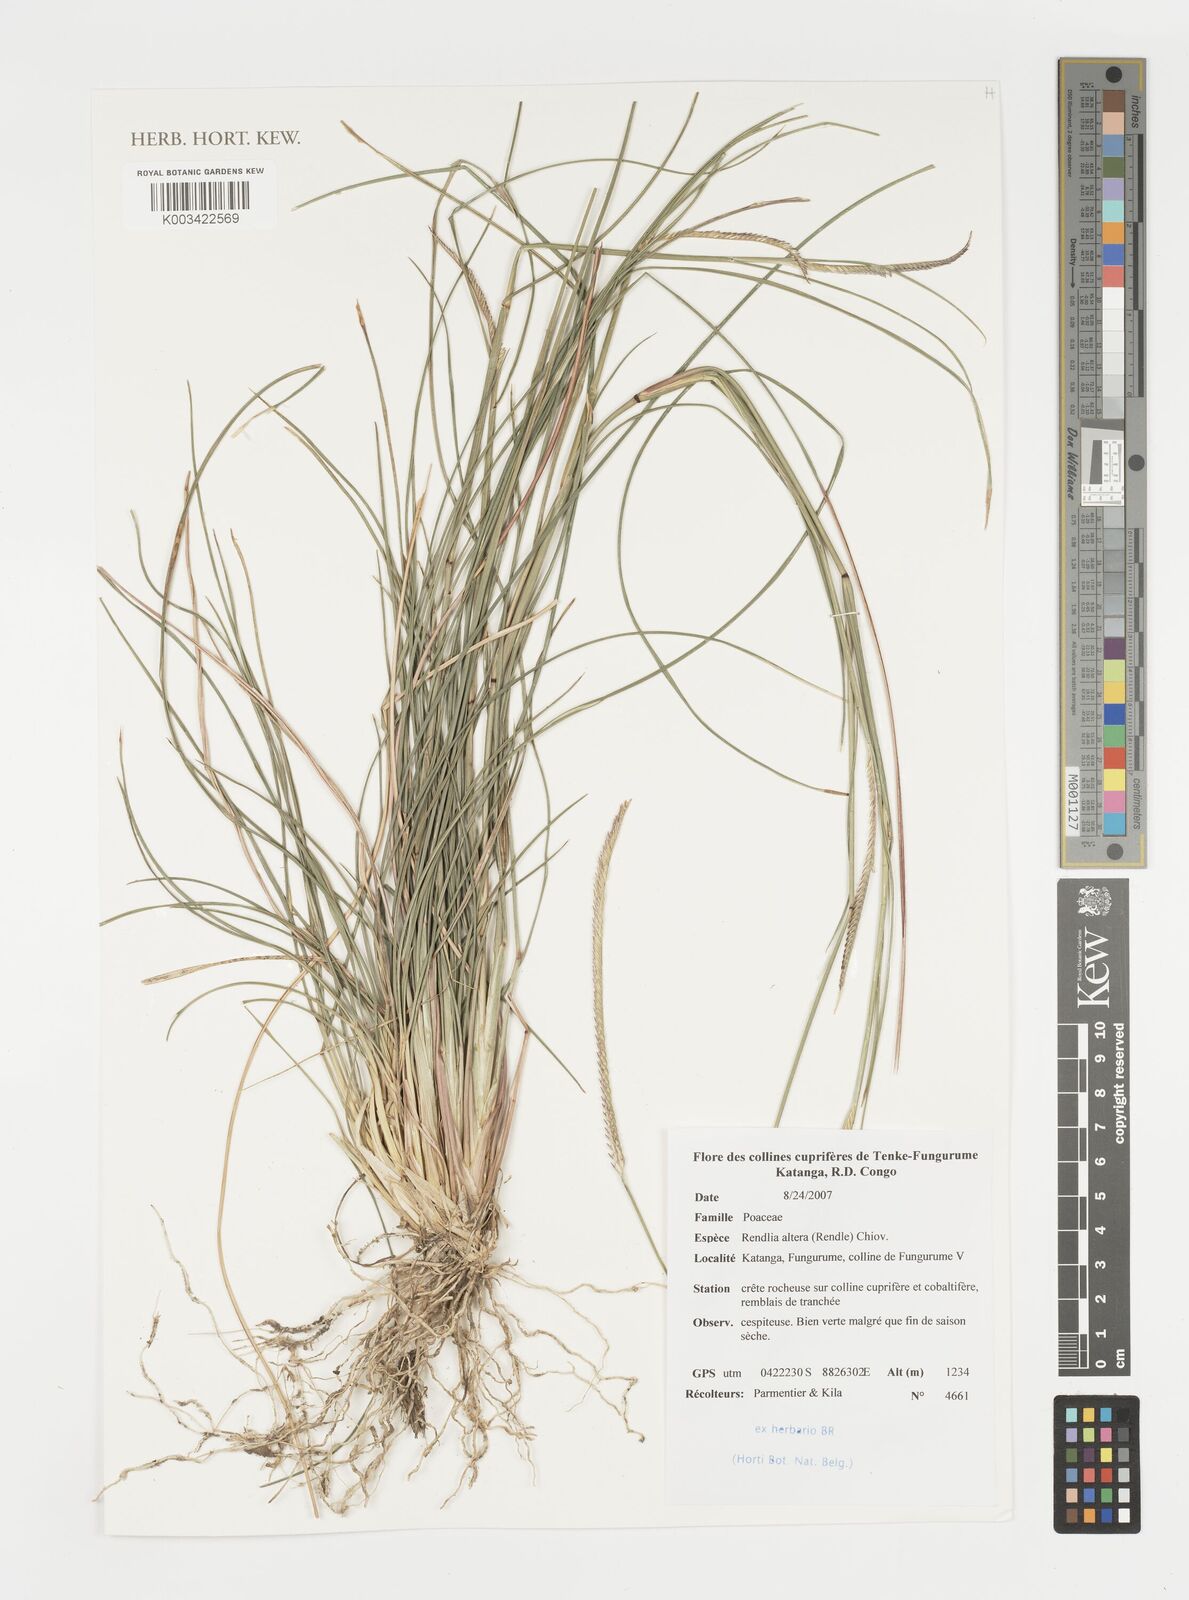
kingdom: Plantae
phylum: Tracheophyta
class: Liliopsida
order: Poales
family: Poaceae
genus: Microchloa
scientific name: Microchloa altera
